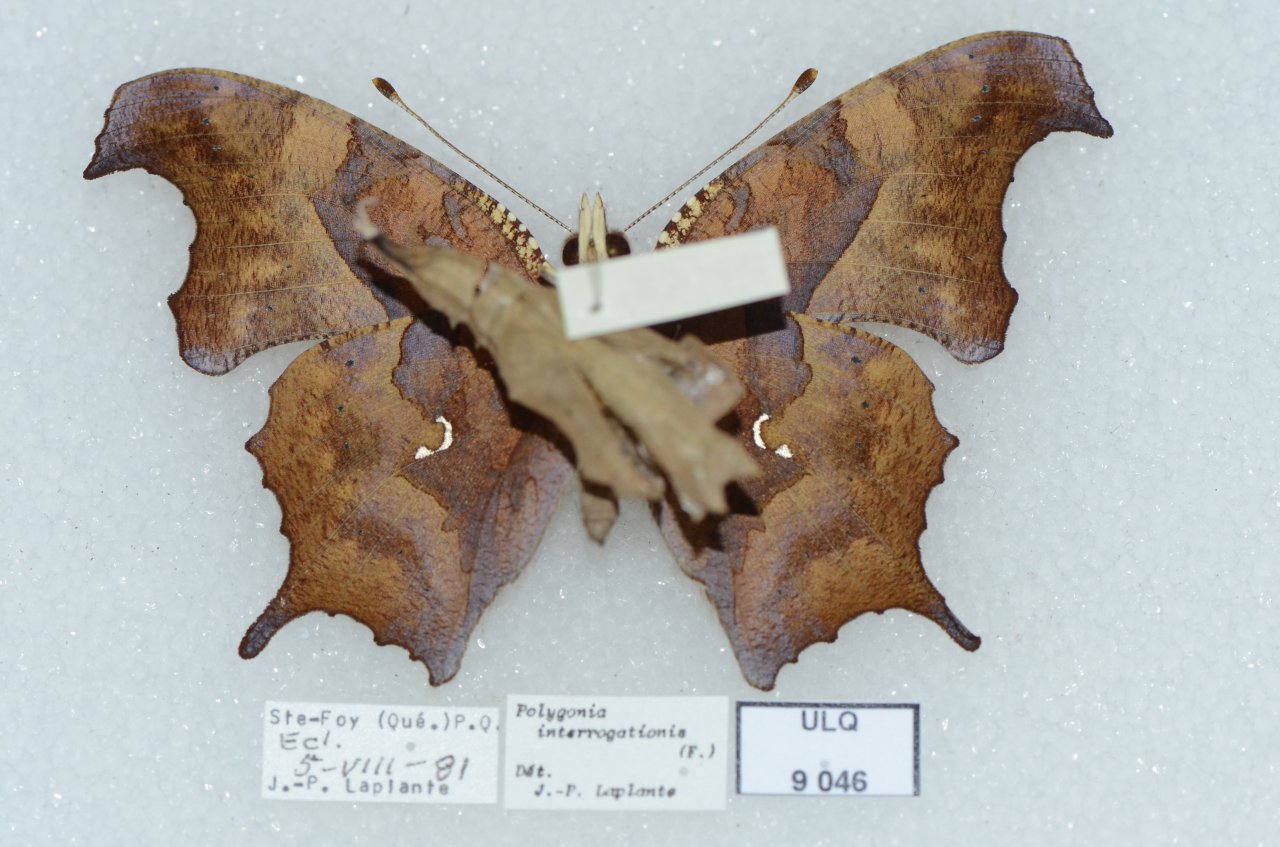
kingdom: Animalia
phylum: Arthropoda
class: Insecta
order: Lepidoptera
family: Nymphalidae
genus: Polygonia
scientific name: Polygonia interrogationis
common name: Question Mark
